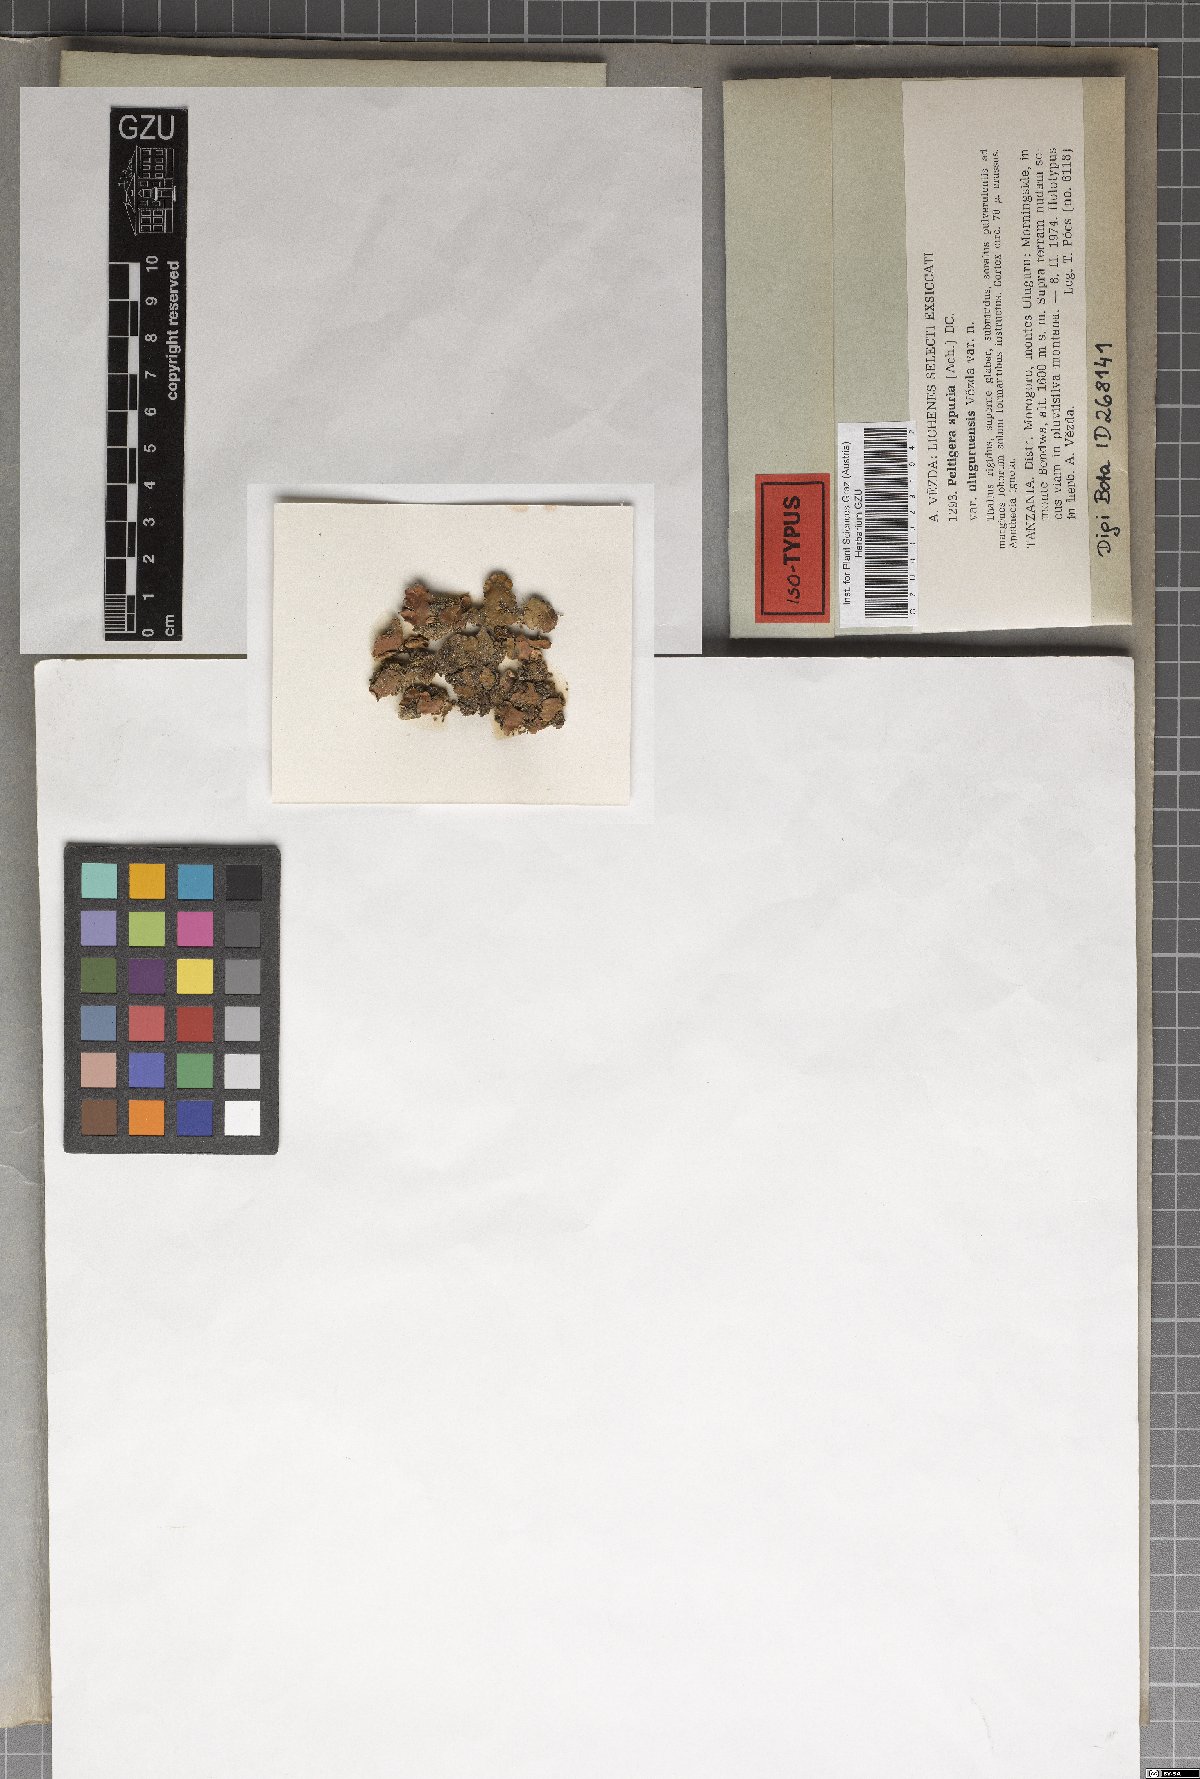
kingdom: Fungi
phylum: Ascomycota
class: Lecanoromycetes
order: Peltigerales
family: Peltigeraceae
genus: Peltigera
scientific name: Peltigera didactyla
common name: Alternating dog lichen
